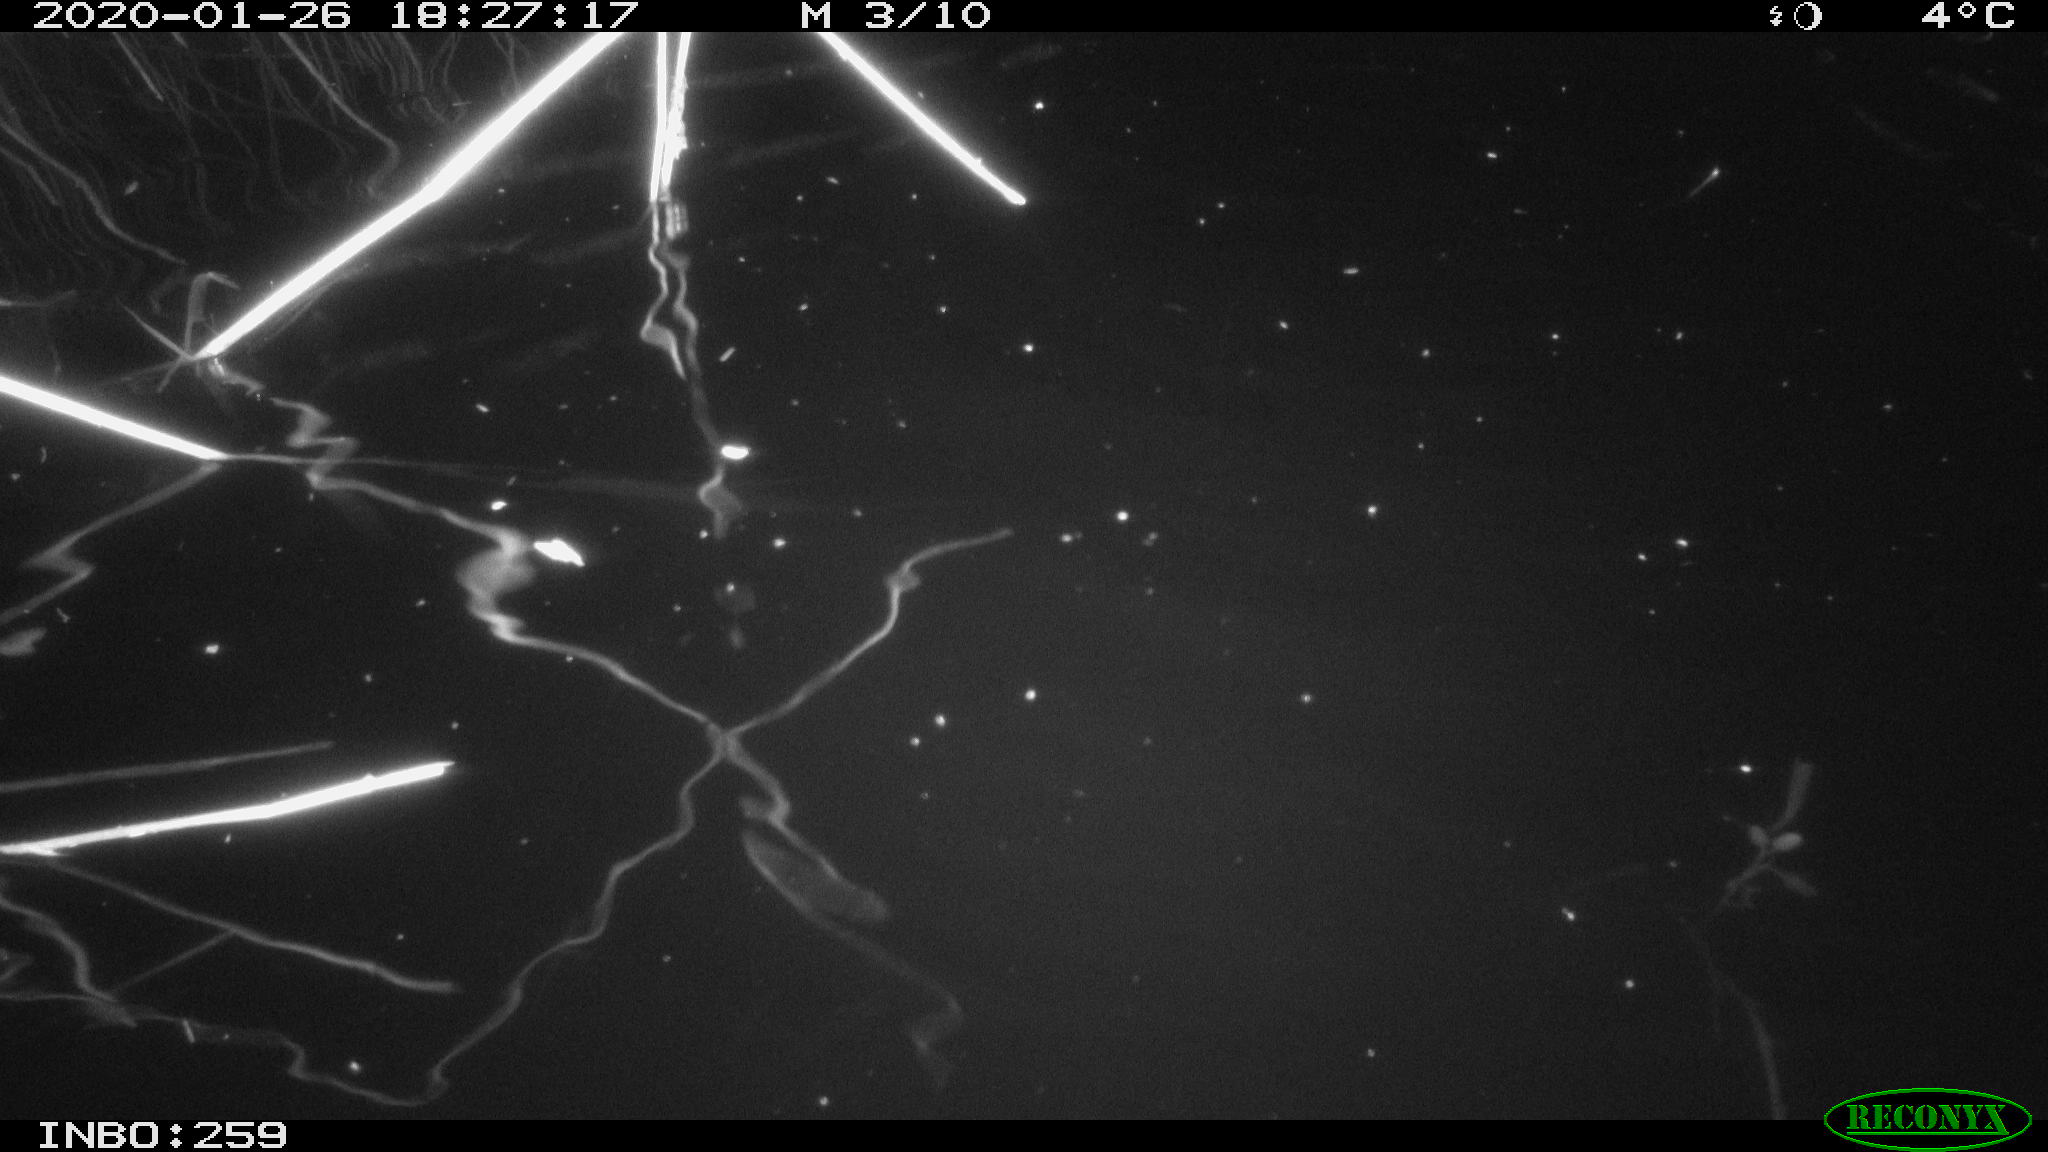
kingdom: Animalia
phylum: Chordata
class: Mammalia
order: Rodentia
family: Cricetidae
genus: Ondatra
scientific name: Ondatra zibethicus
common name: Muskrat
